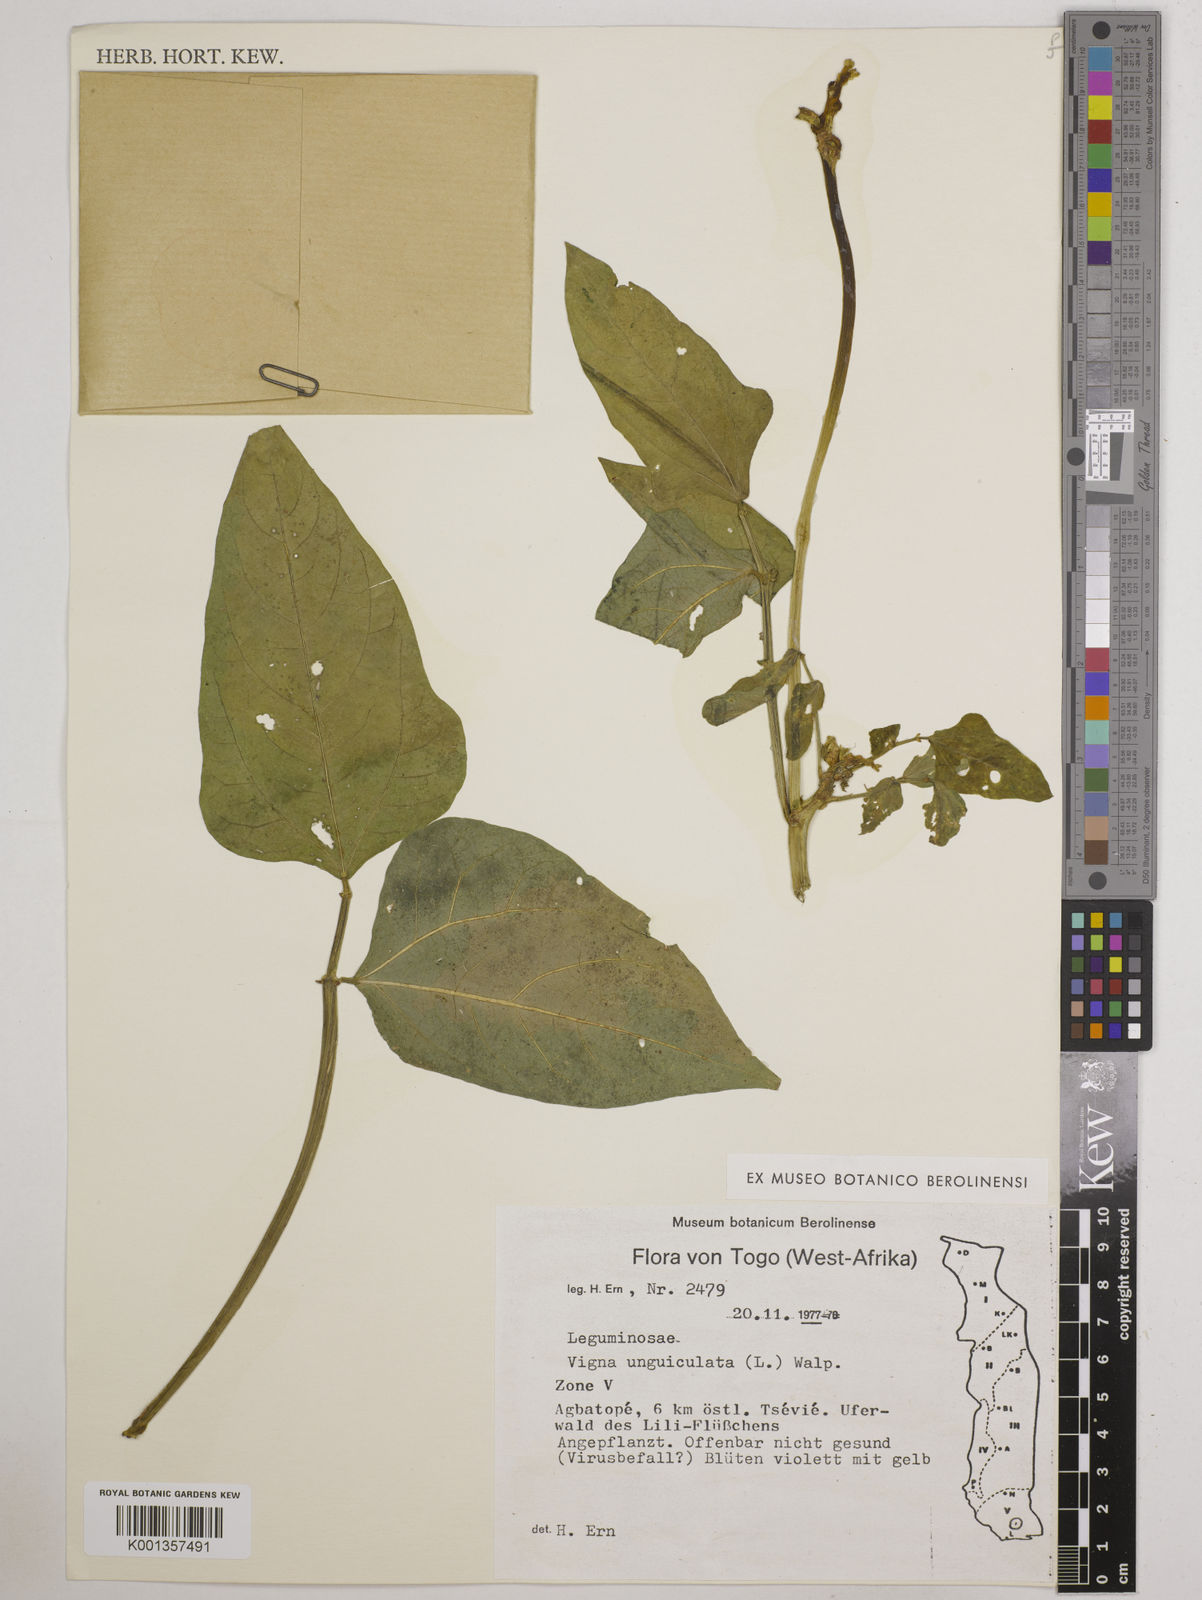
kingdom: Plantae
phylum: Tracheophyta
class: Magnoliopsida
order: Fabales
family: Fabaceae
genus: Vigna
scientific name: Vigna unguiculata
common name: Cowpea
